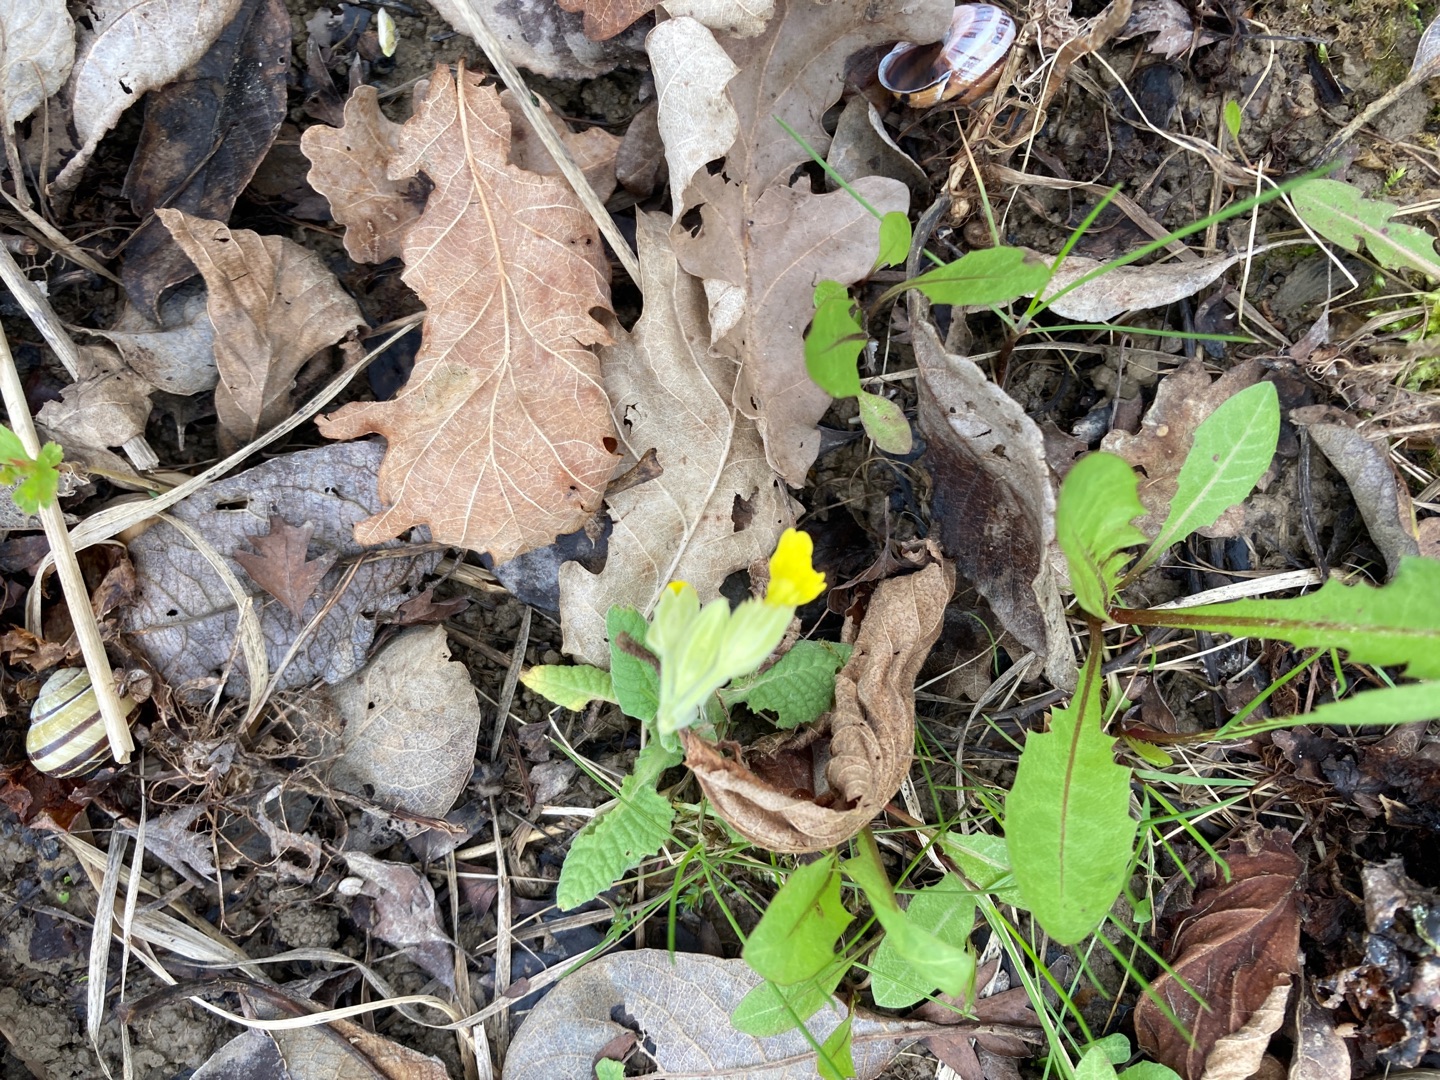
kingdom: Plantae
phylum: Tracheophyta
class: Magnoliopsida
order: Ericales
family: Primulaceae
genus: Primula
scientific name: Primula veris
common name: Hulkravet kodriver
